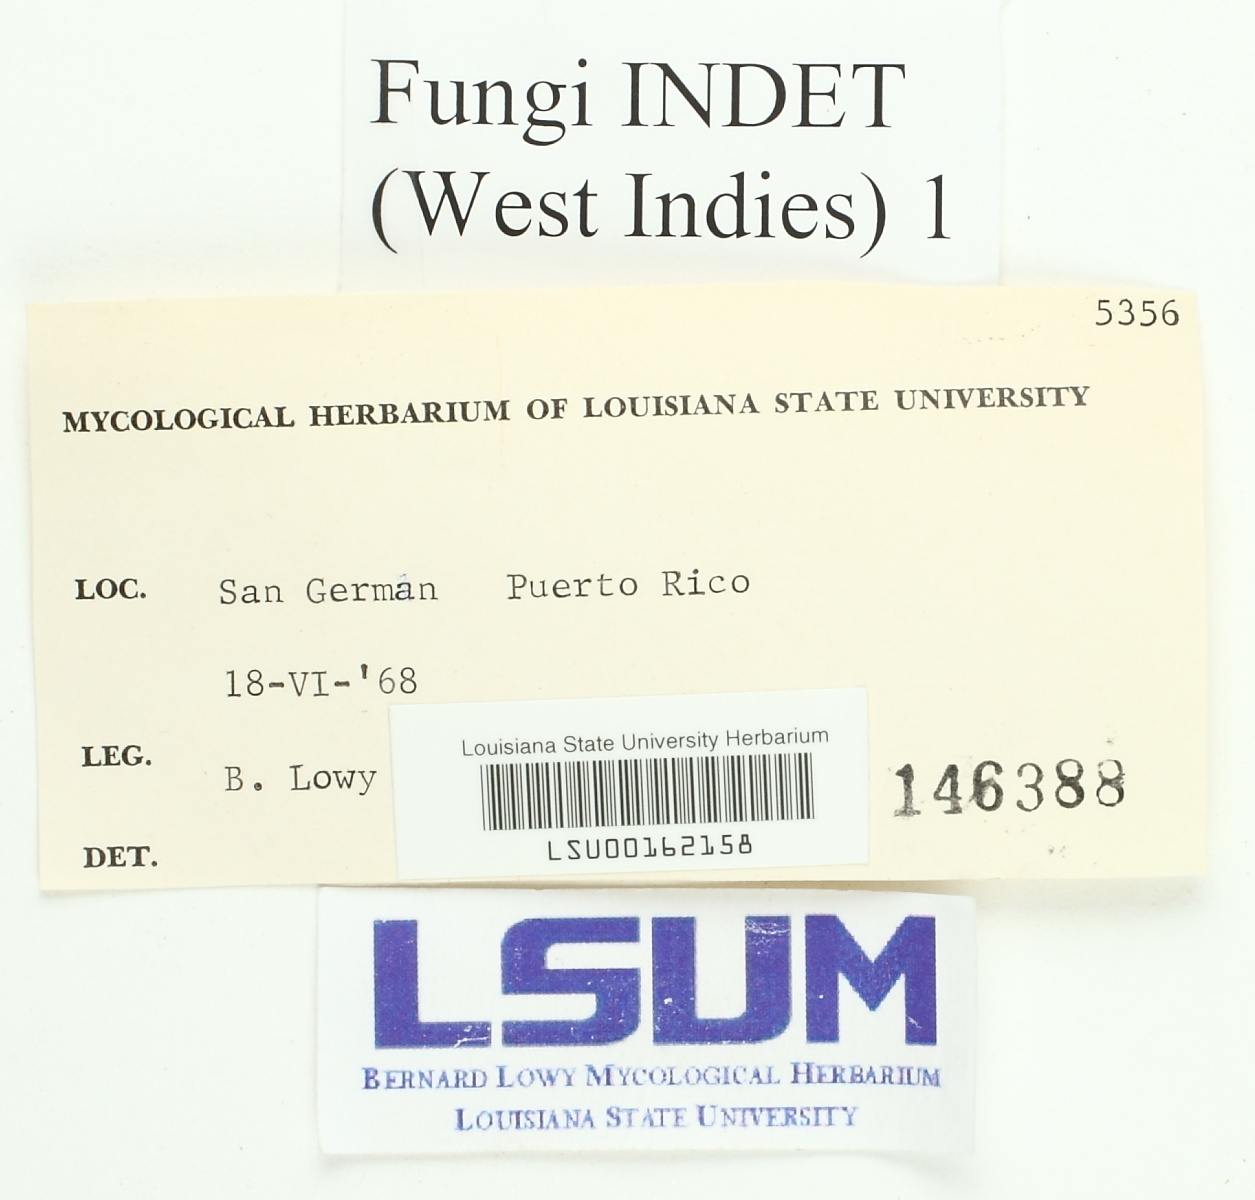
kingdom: Fungi
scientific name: Fungi
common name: Fungi
